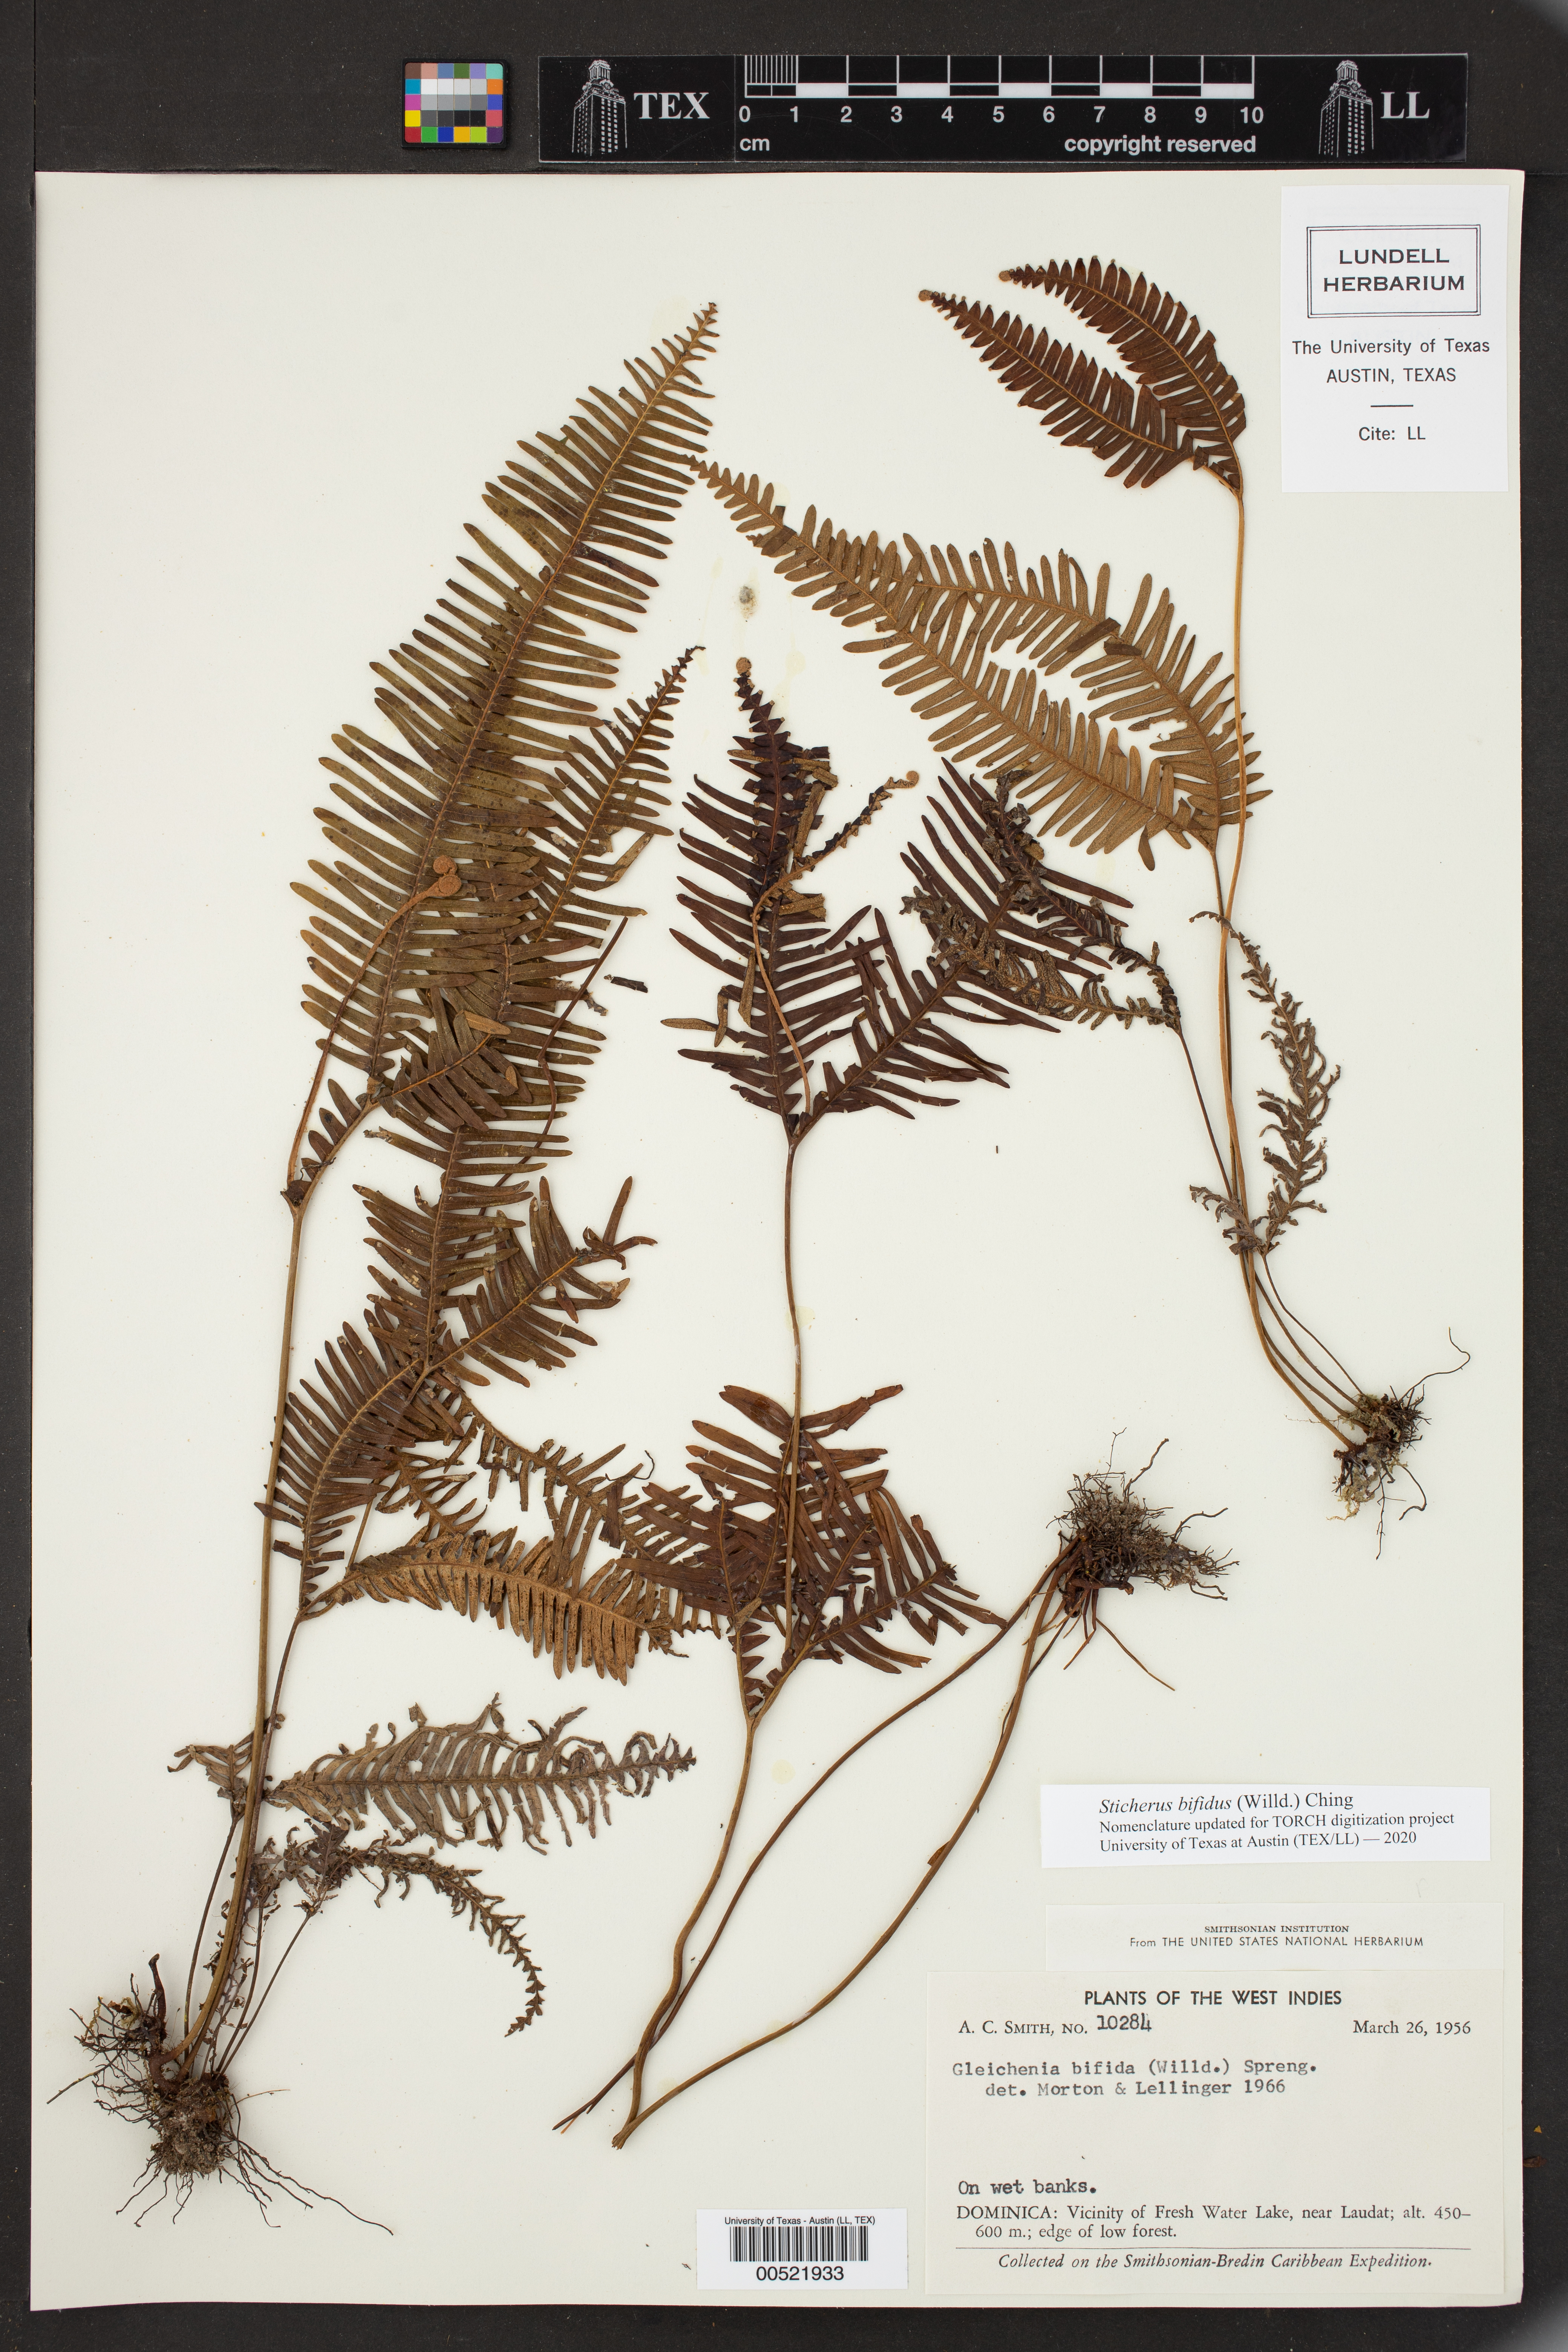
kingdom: Plantae
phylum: Tracheophyta
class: Polypodiopsida
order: Gleicheniales
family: Gleicheniaceae
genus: Sticherus
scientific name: Sticherus bifidus
